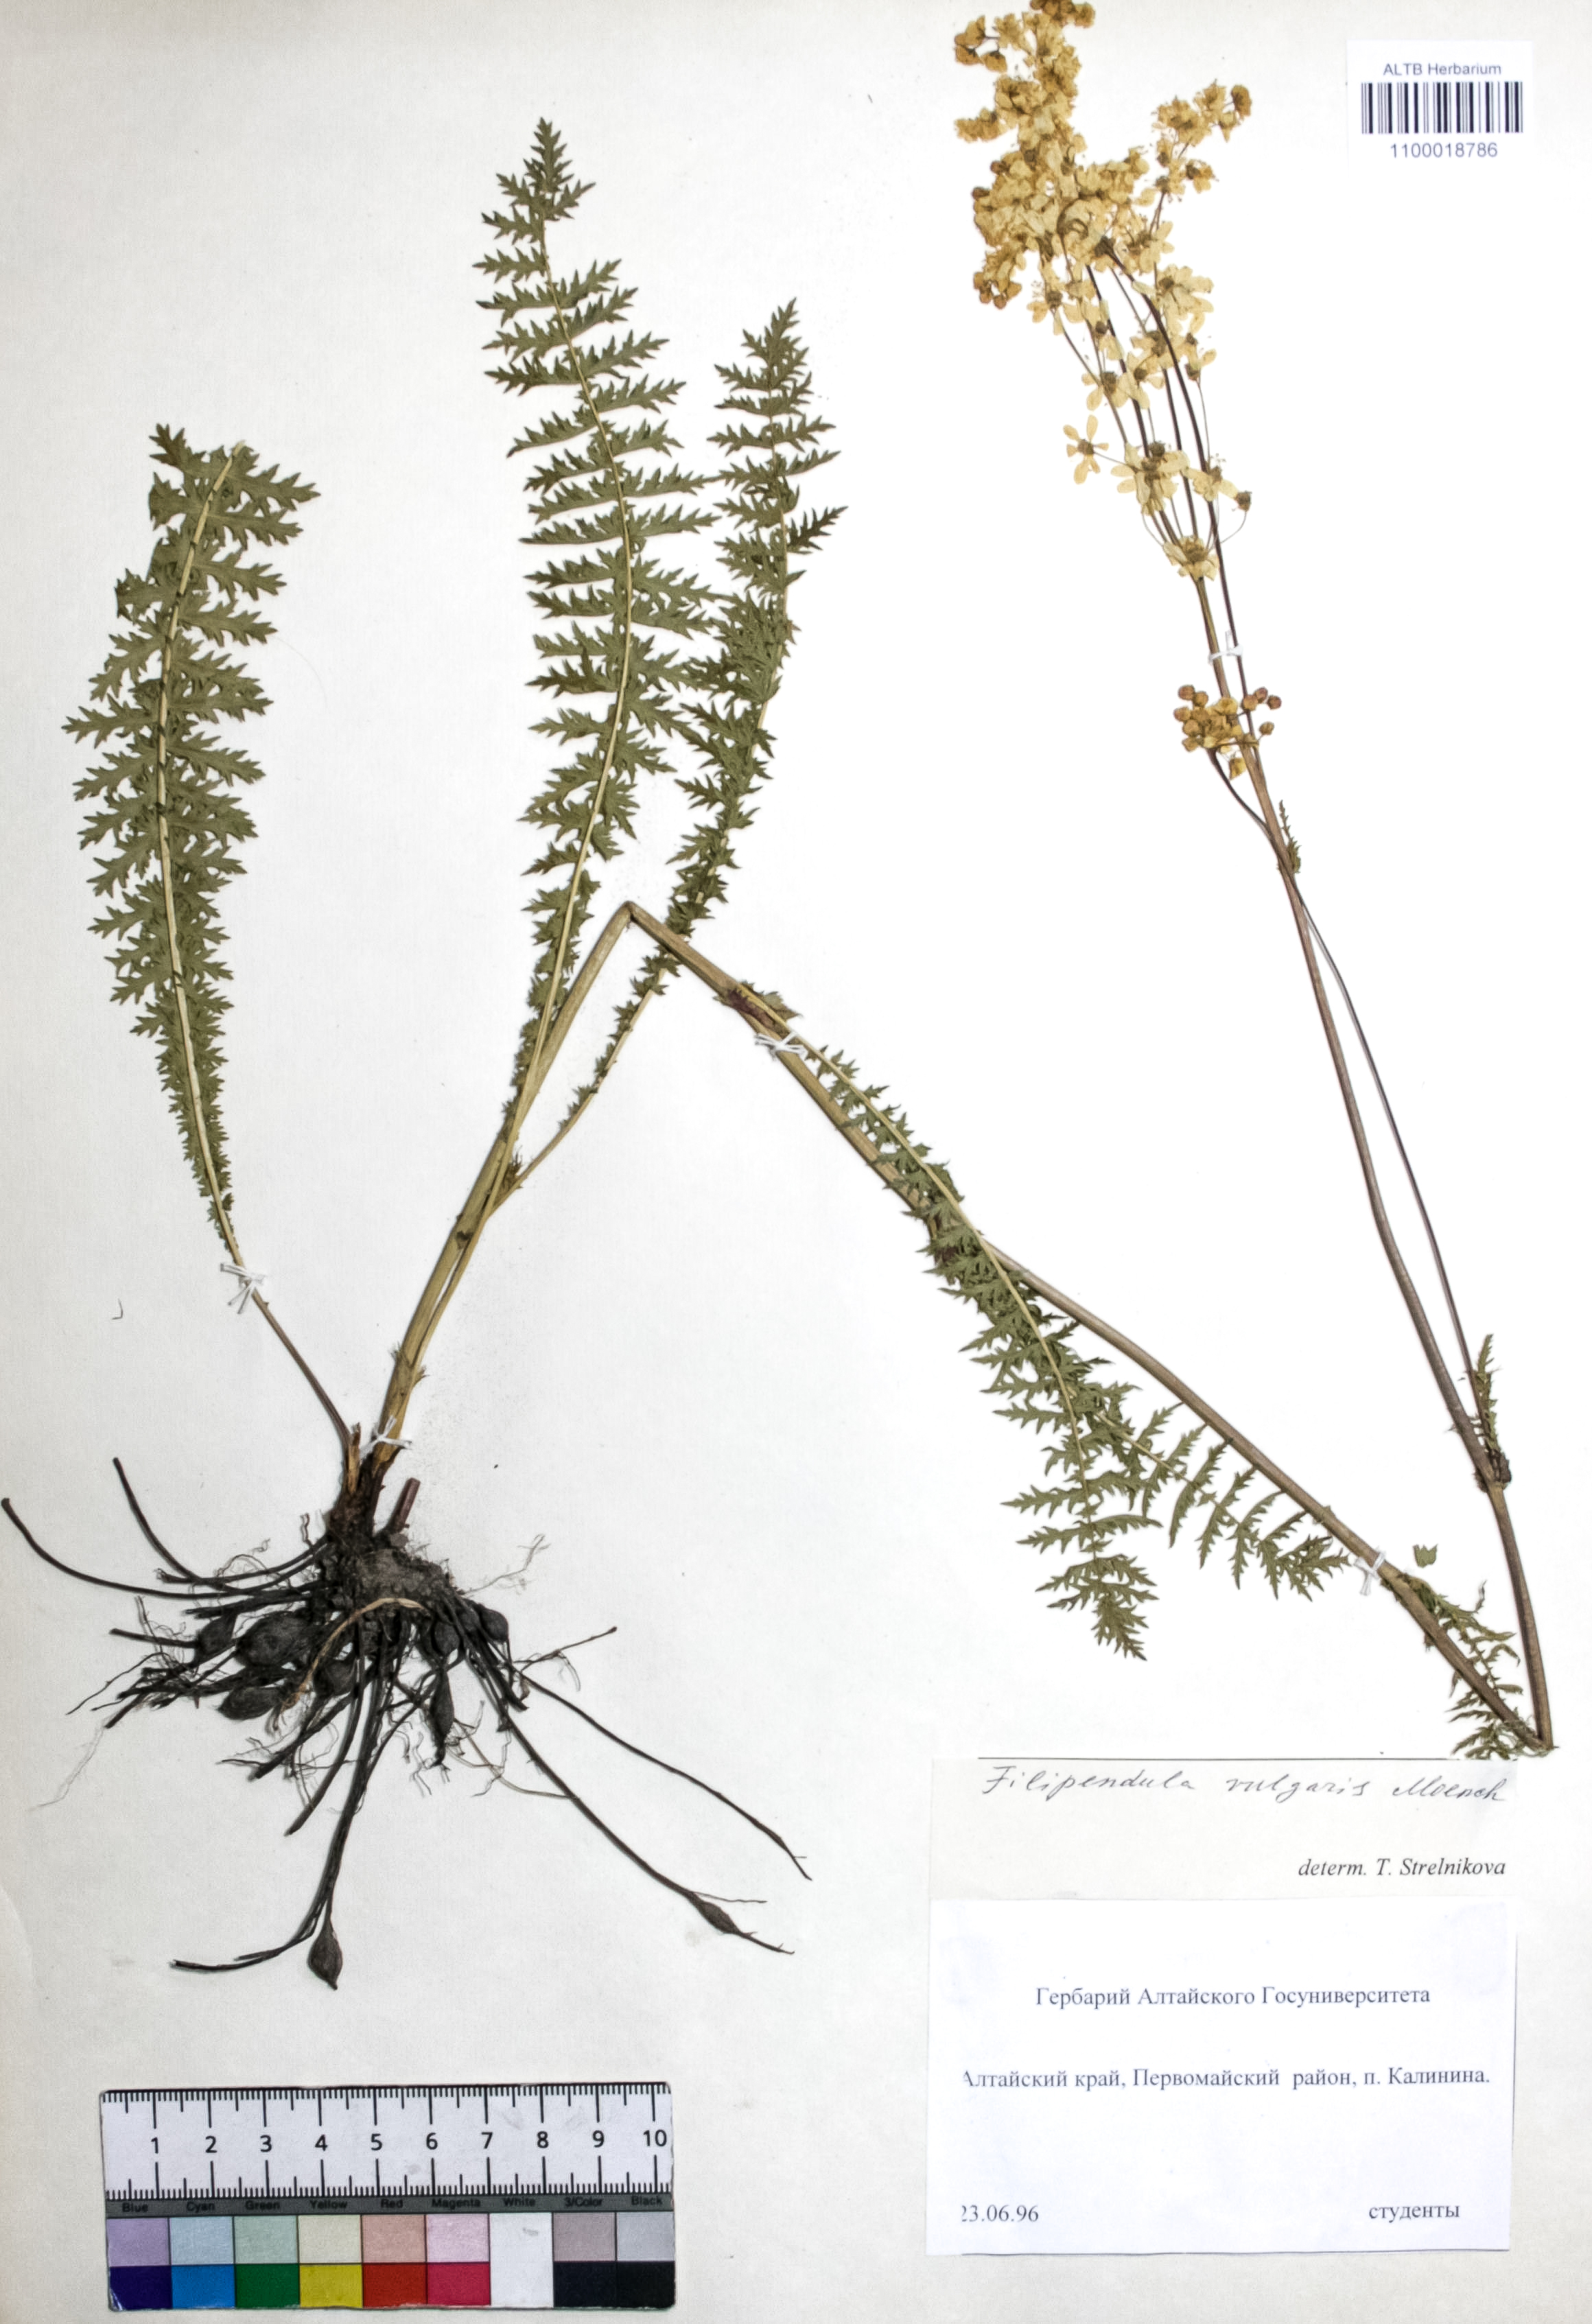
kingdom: Plantae
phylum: Tracheophyta
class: Magnoliopsida
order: Rosales
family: Rosaceae
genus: Filipendula
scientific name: Filipendula vulgaris
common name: Dropwort
